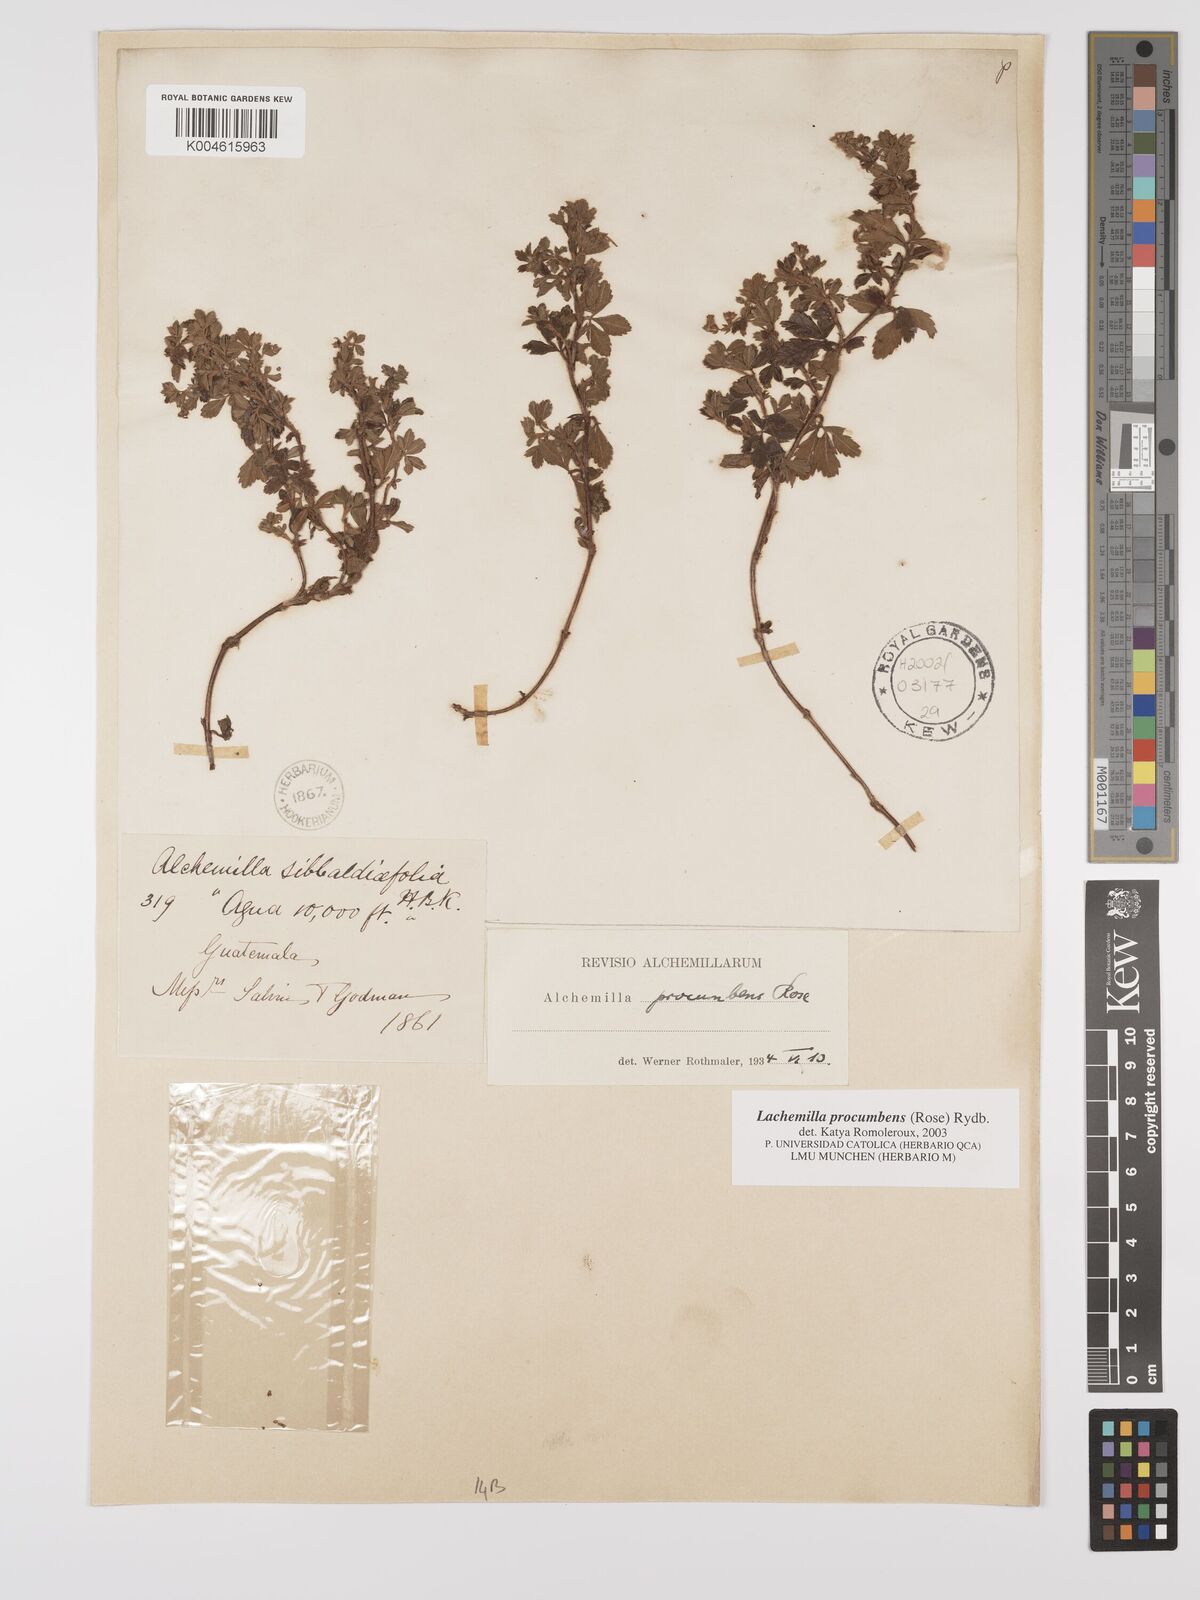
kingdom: Plantae
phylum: Tracheophyta
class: Magnoliopsida
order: Rosales
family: Rosaceae
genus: Lachemilla
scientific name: Lachemilla procumbens
